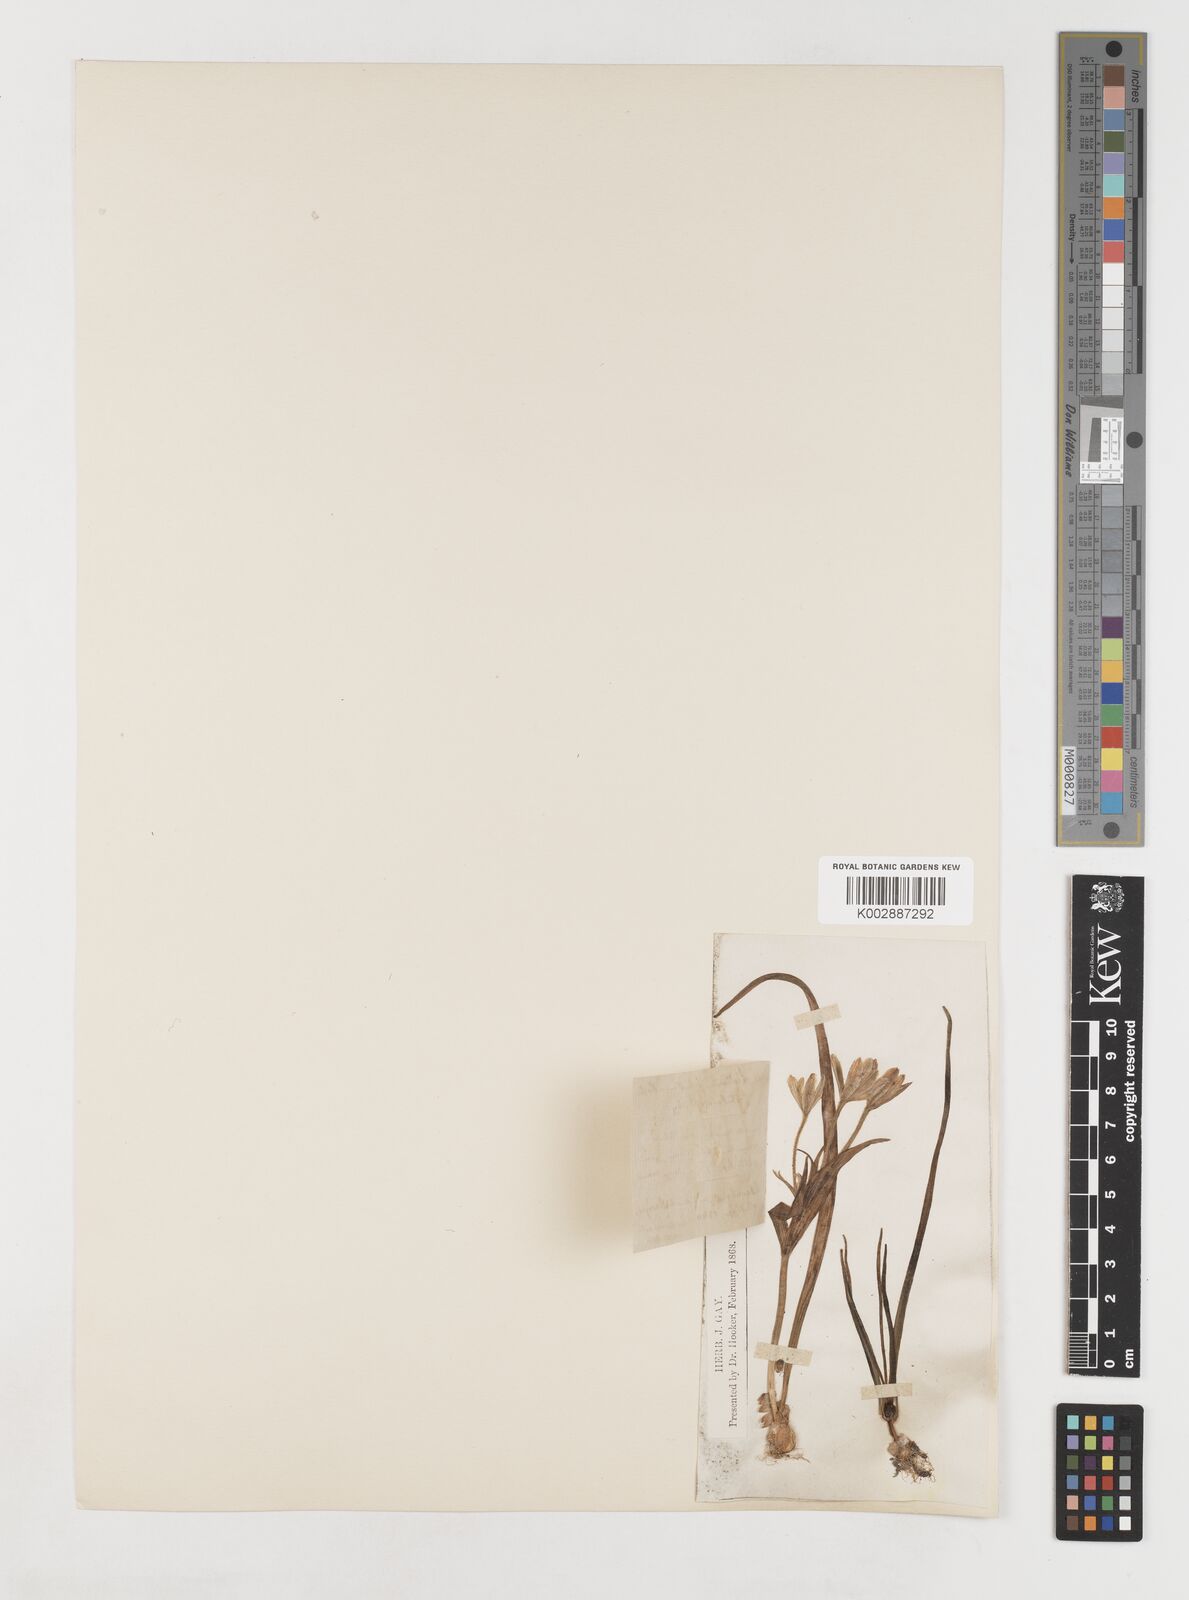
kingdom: Plantae
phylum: Tracheophyta
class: Liliopsida
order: Liliales
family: Liliaceae
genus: Gagea
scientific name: Gagea bohemica
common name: Early star-of-bethlehem
